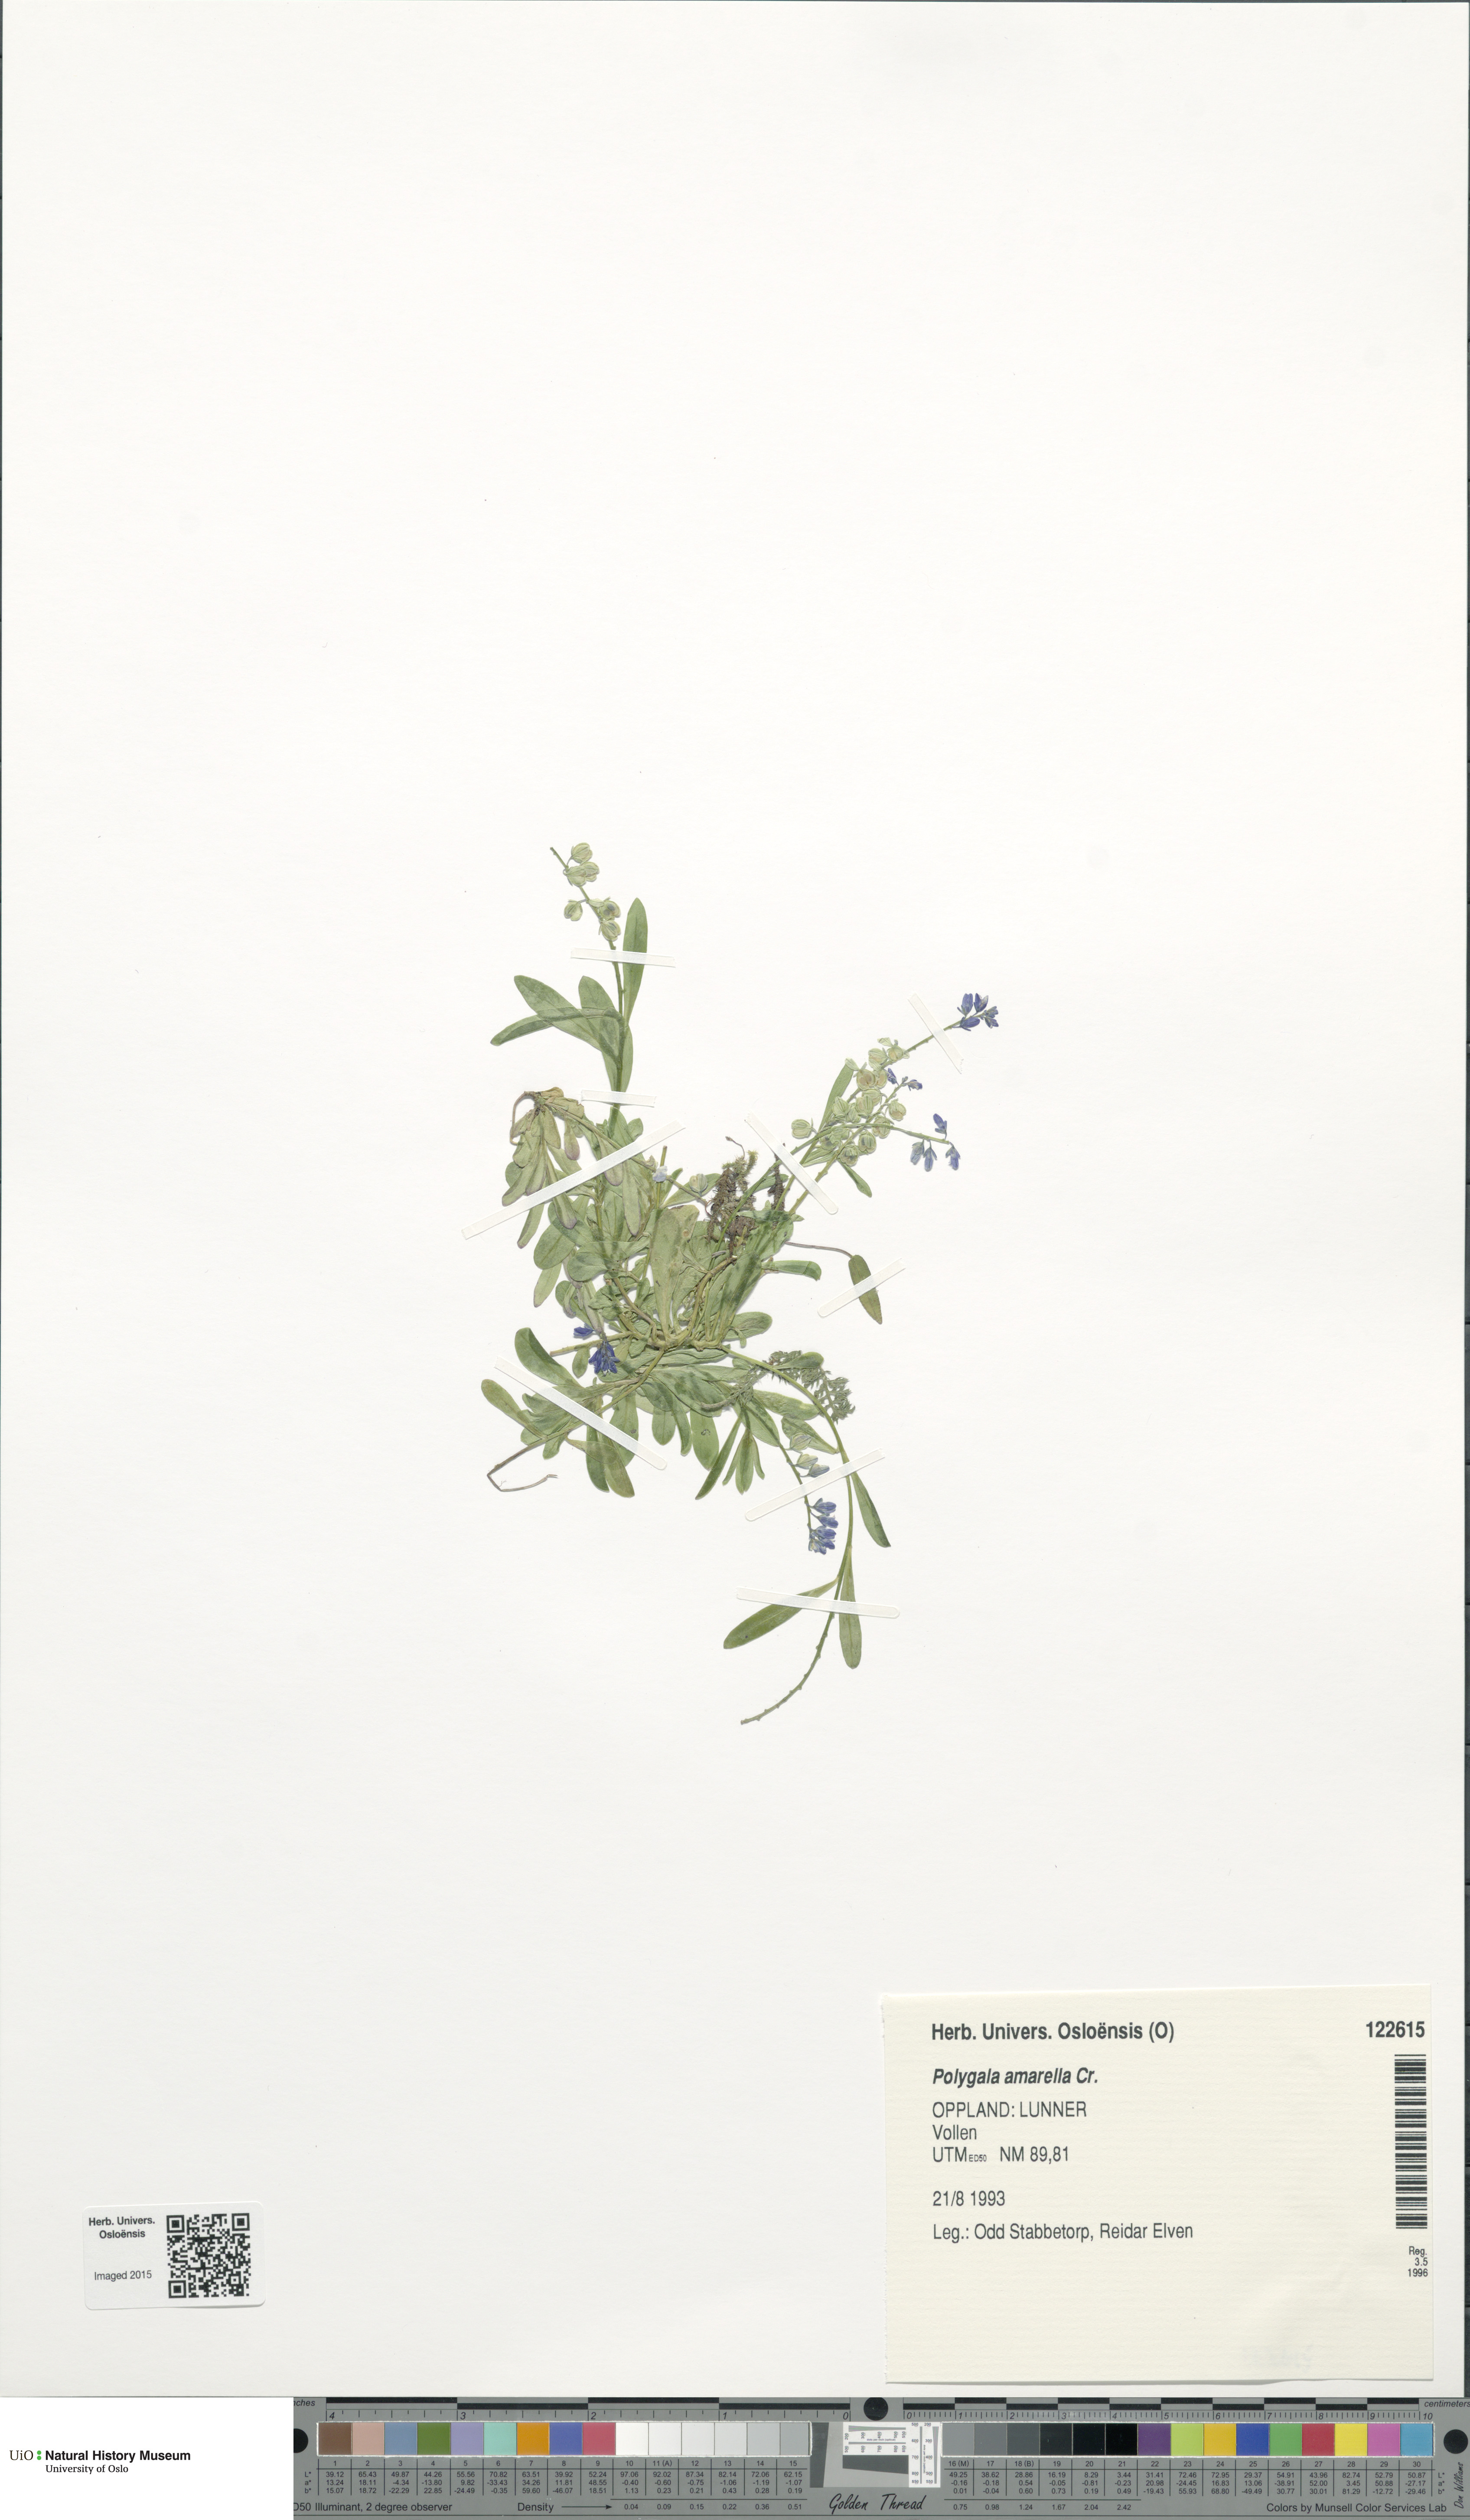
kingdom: Plantae
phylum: Tracheophyta
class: Magnoliopsida
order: Fabales
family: Polygalaceae
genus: Polygala
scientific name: Polygala amarella
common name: Dwarf milkwort
